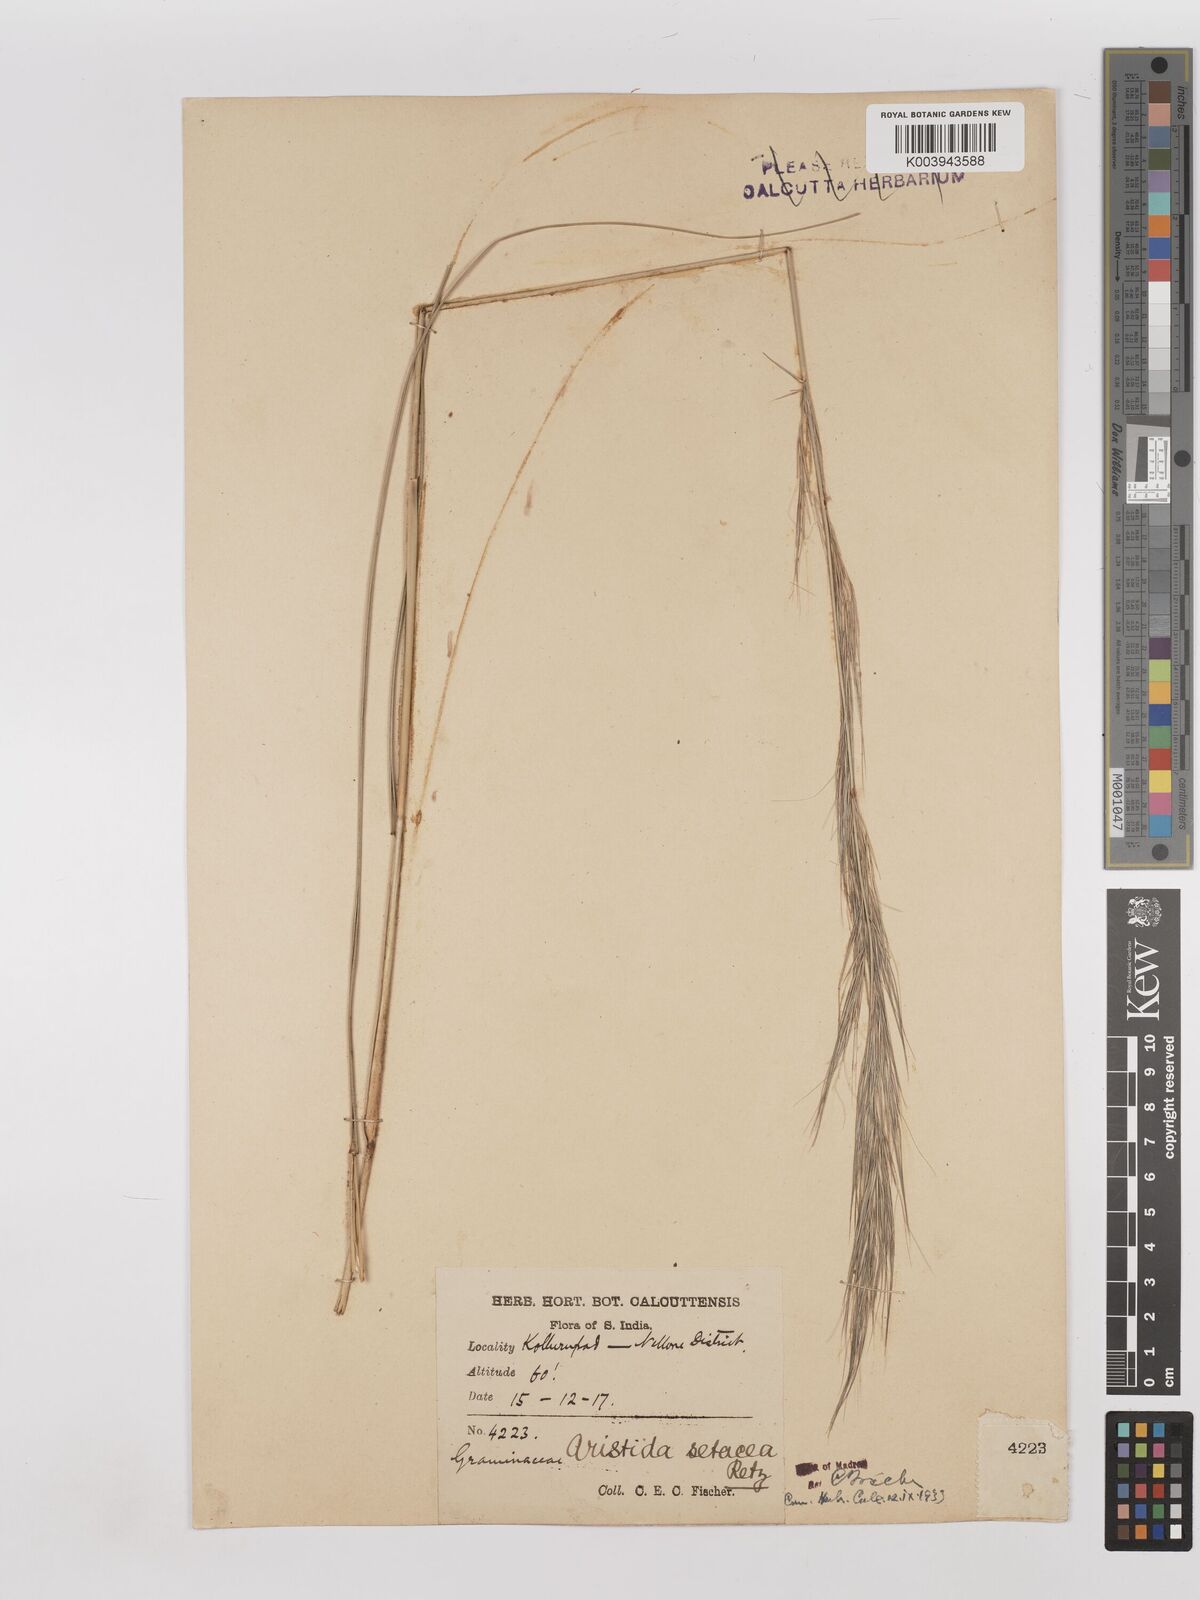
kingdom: Plantae
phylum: Tracheophyta
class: Liliopsida
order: Poales
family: Poaceae
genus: Aristida
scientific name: Aristida setacea
